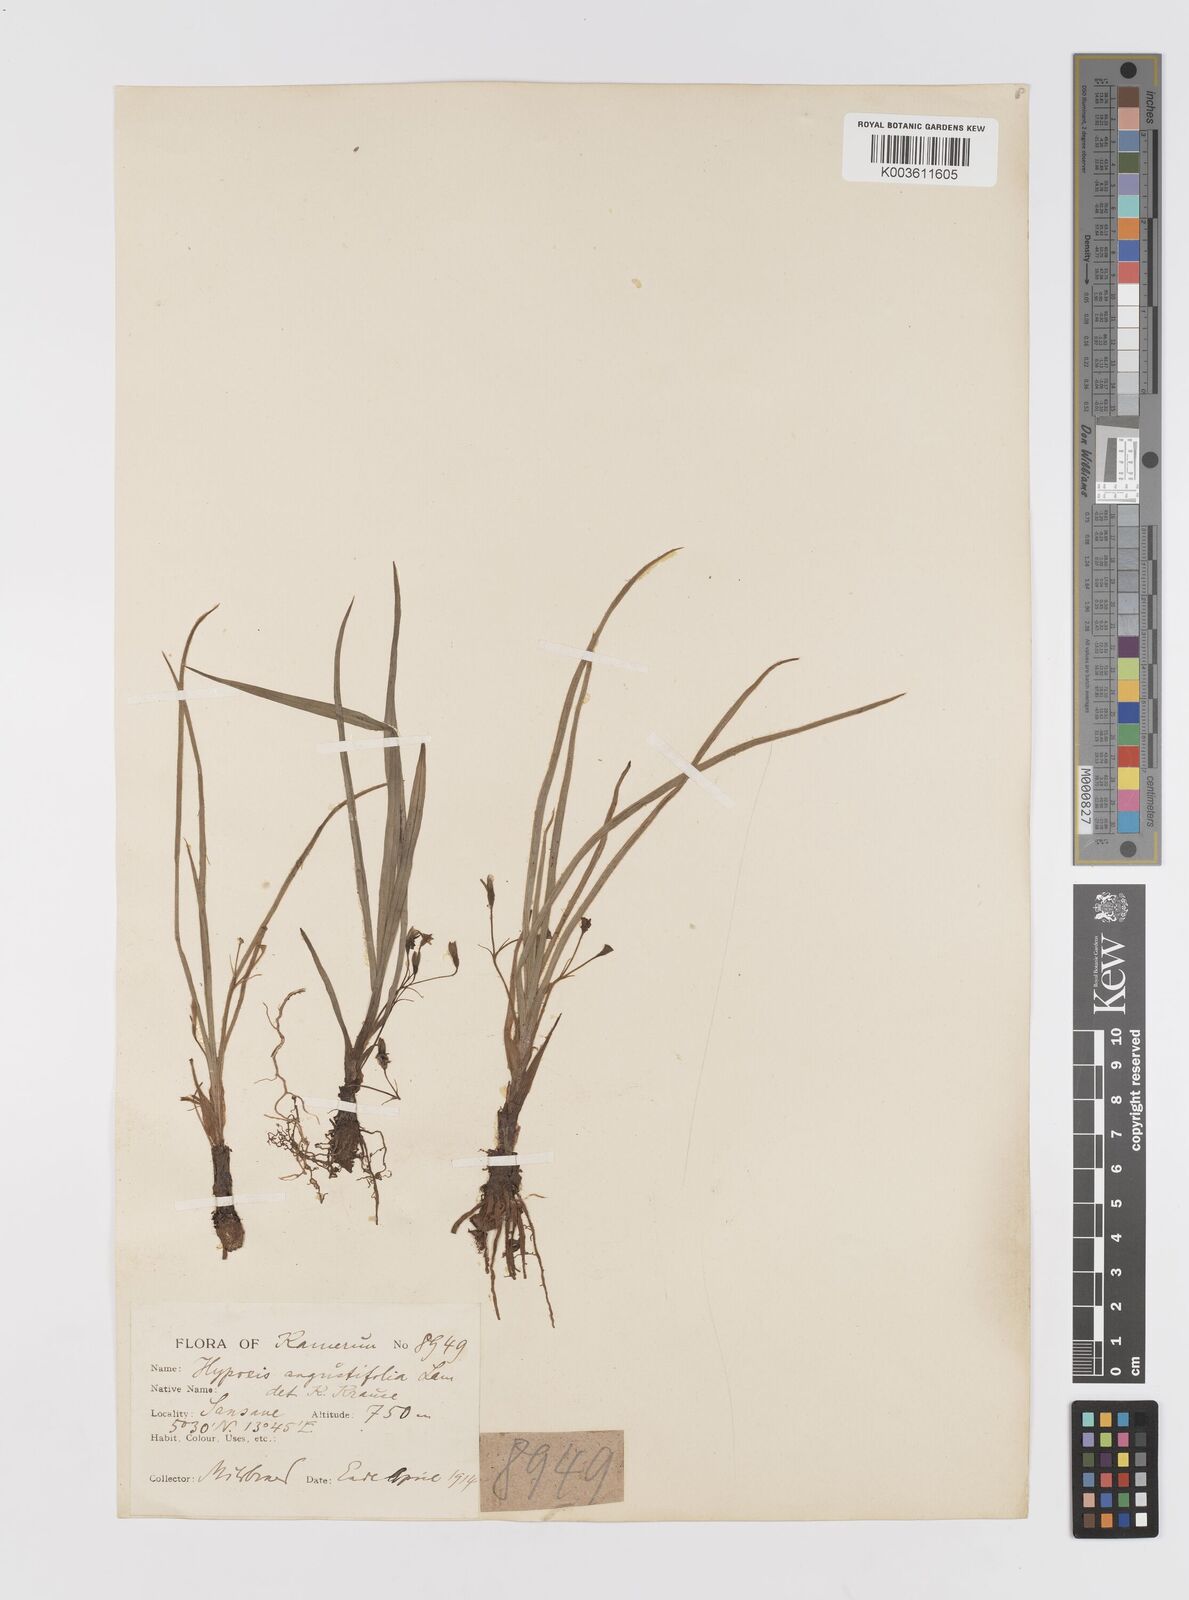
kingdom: Plantae
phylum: Tracheophyta
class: Liliopsida
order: Asparagales
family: Hypoxidaceae
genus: Hypoxis
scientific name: Hypoxis angustifolia
